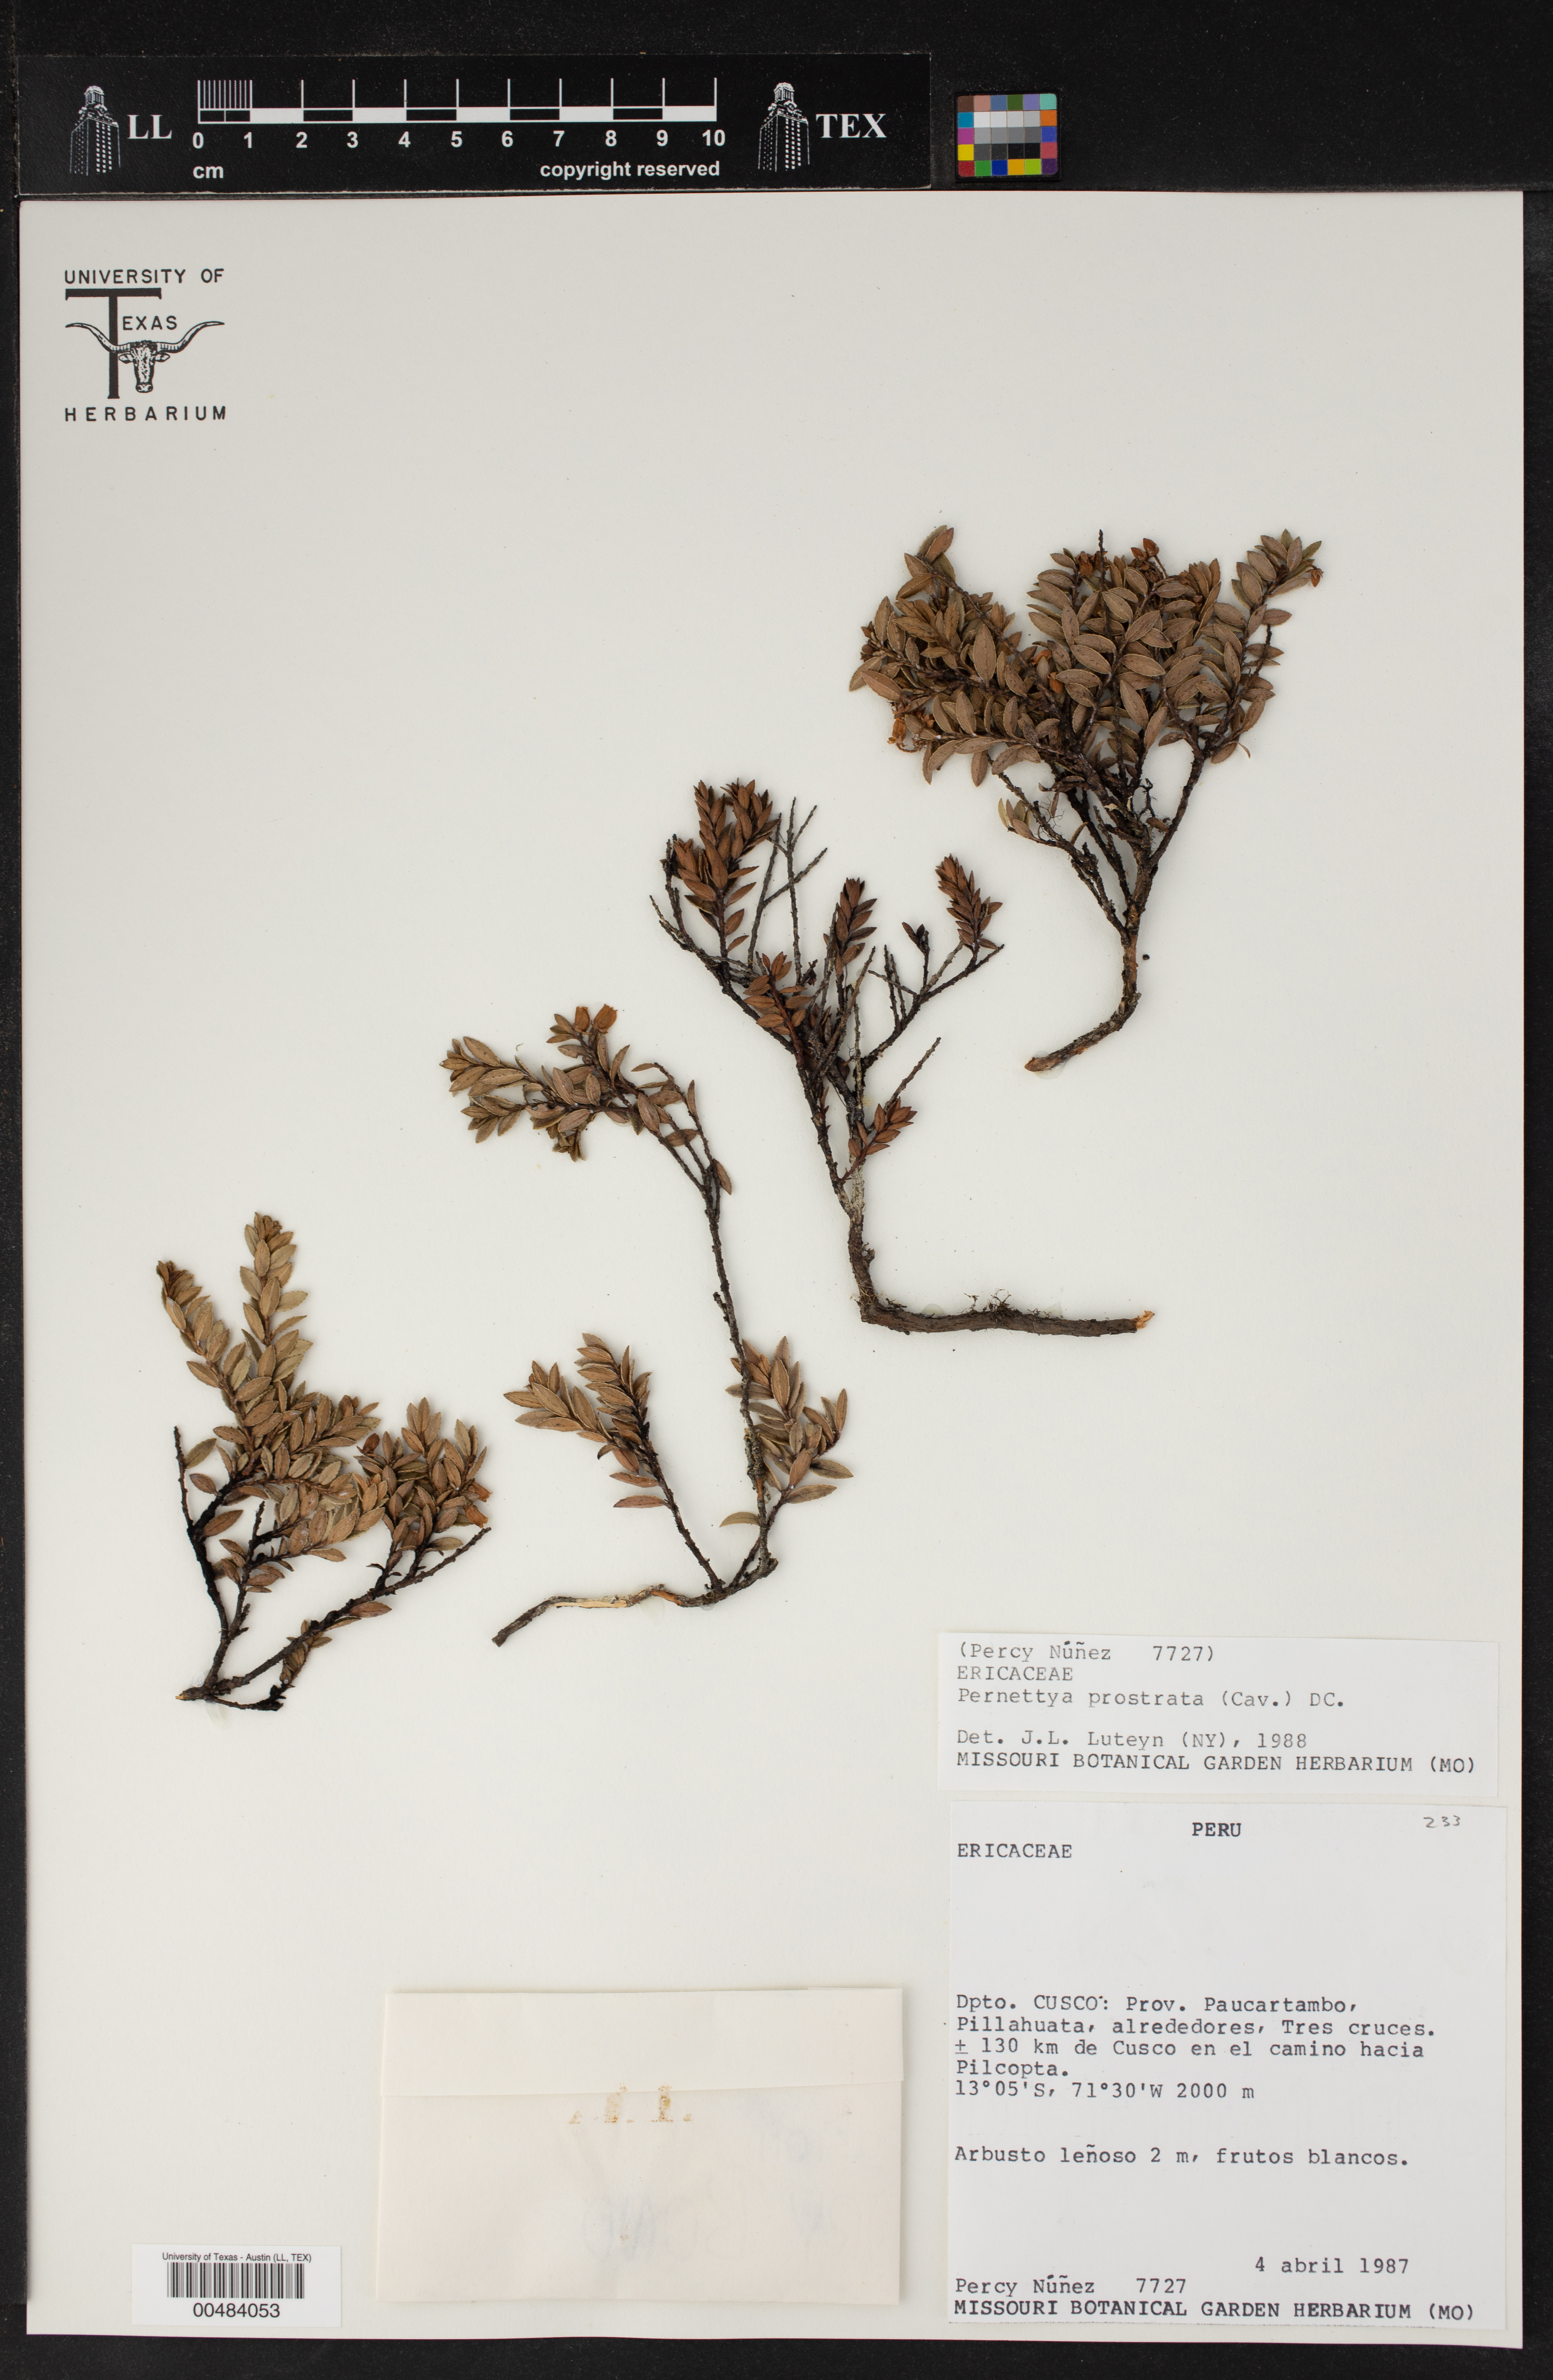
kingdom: Plantae
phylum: Tracheophyta
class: Magnoliopsida
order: Ericales
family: Ericaceae
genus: Gaultheria
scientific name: Gaultheria myrsinoides
